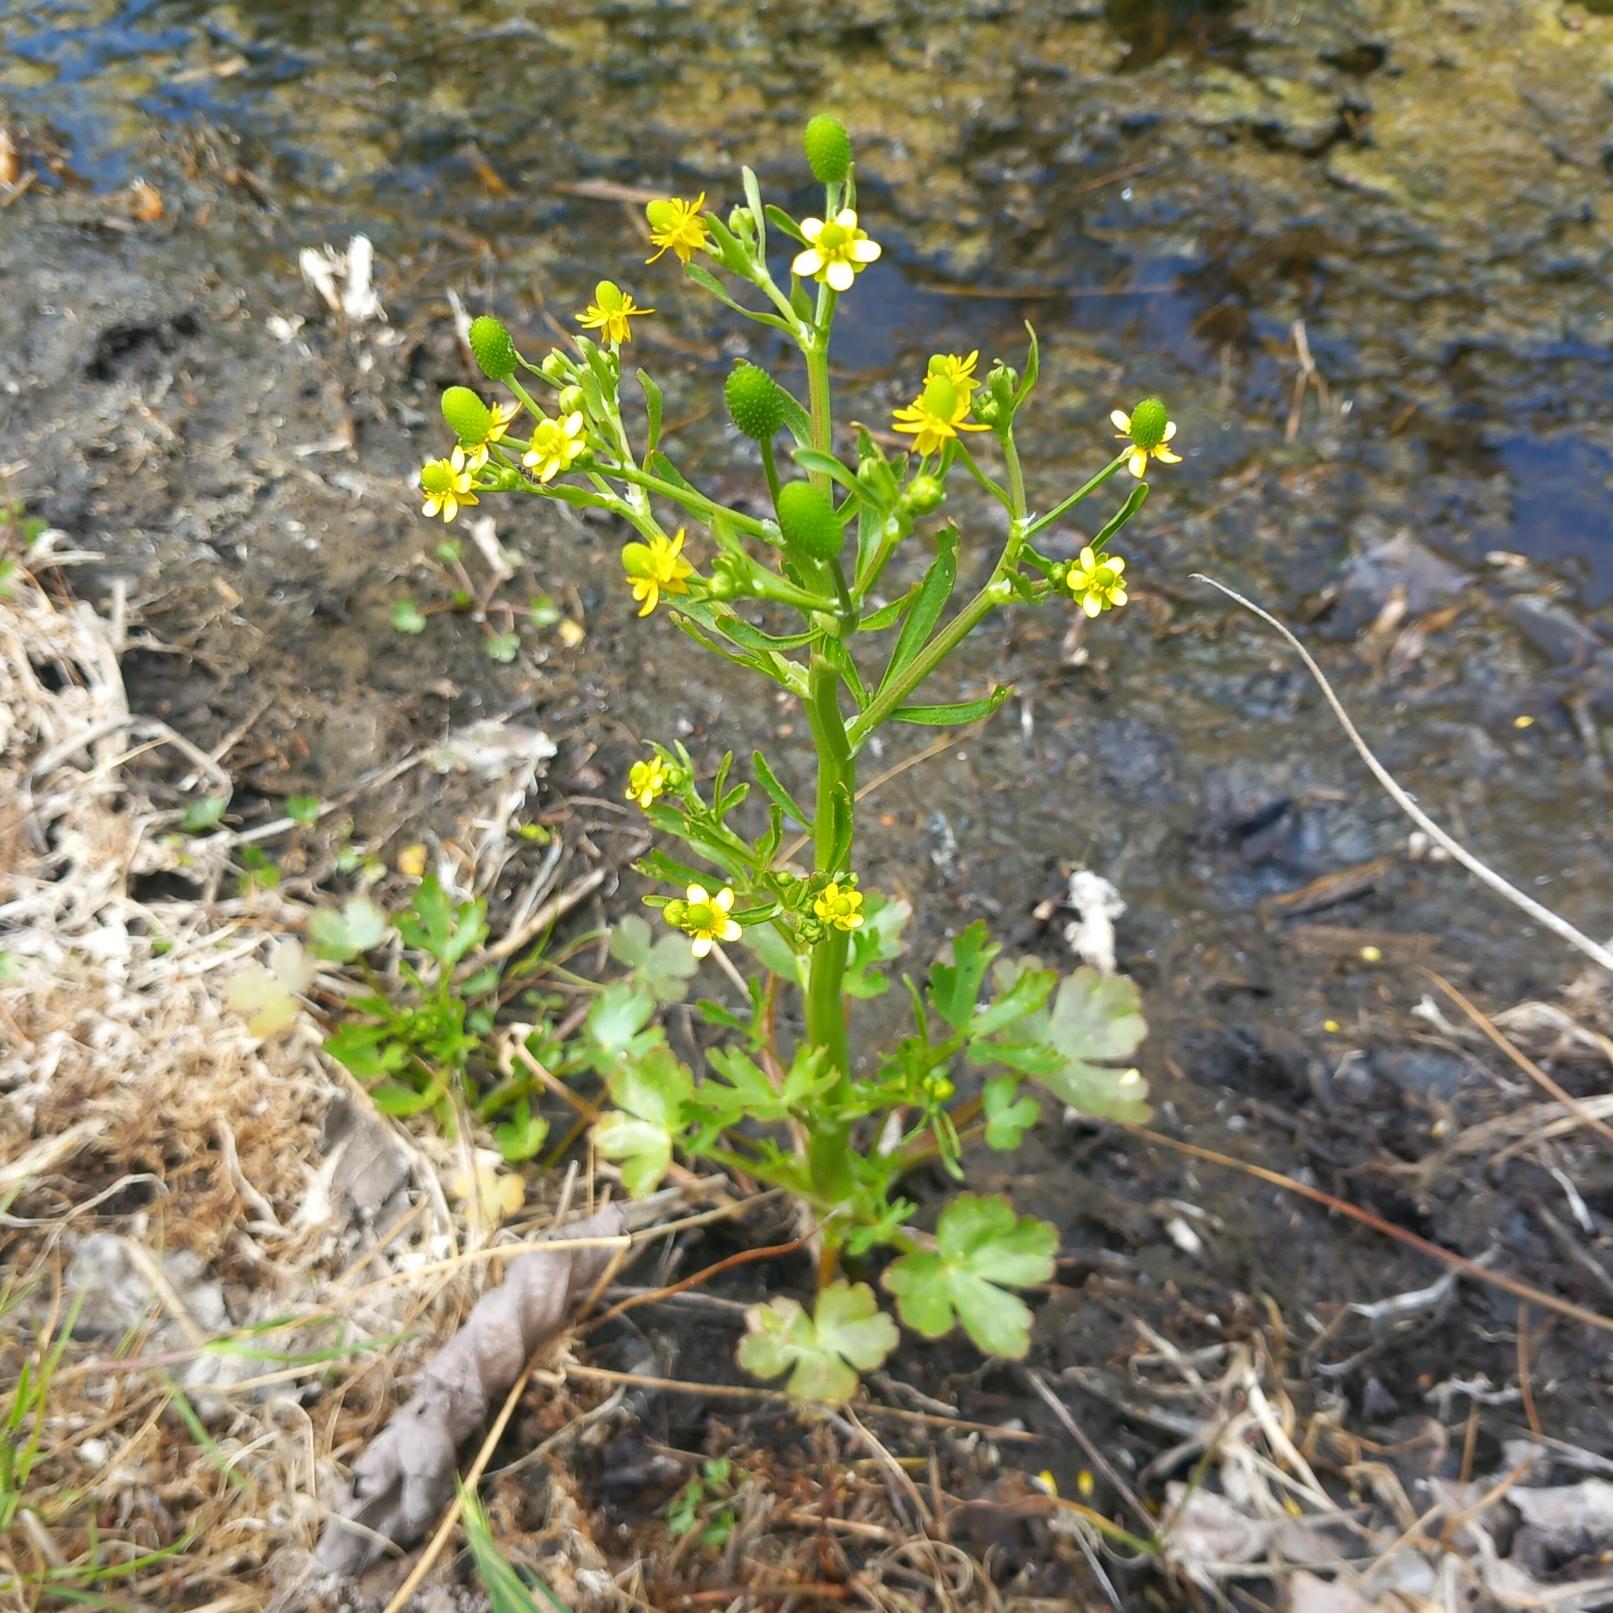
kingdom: Plantae
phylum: Tracheophyta
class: Magnoliopsida
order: Ranunculales
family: Ranunculaceae
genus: Ranunculus
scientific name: Ranunculus sceleratus
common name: Tigger-ranunkel
